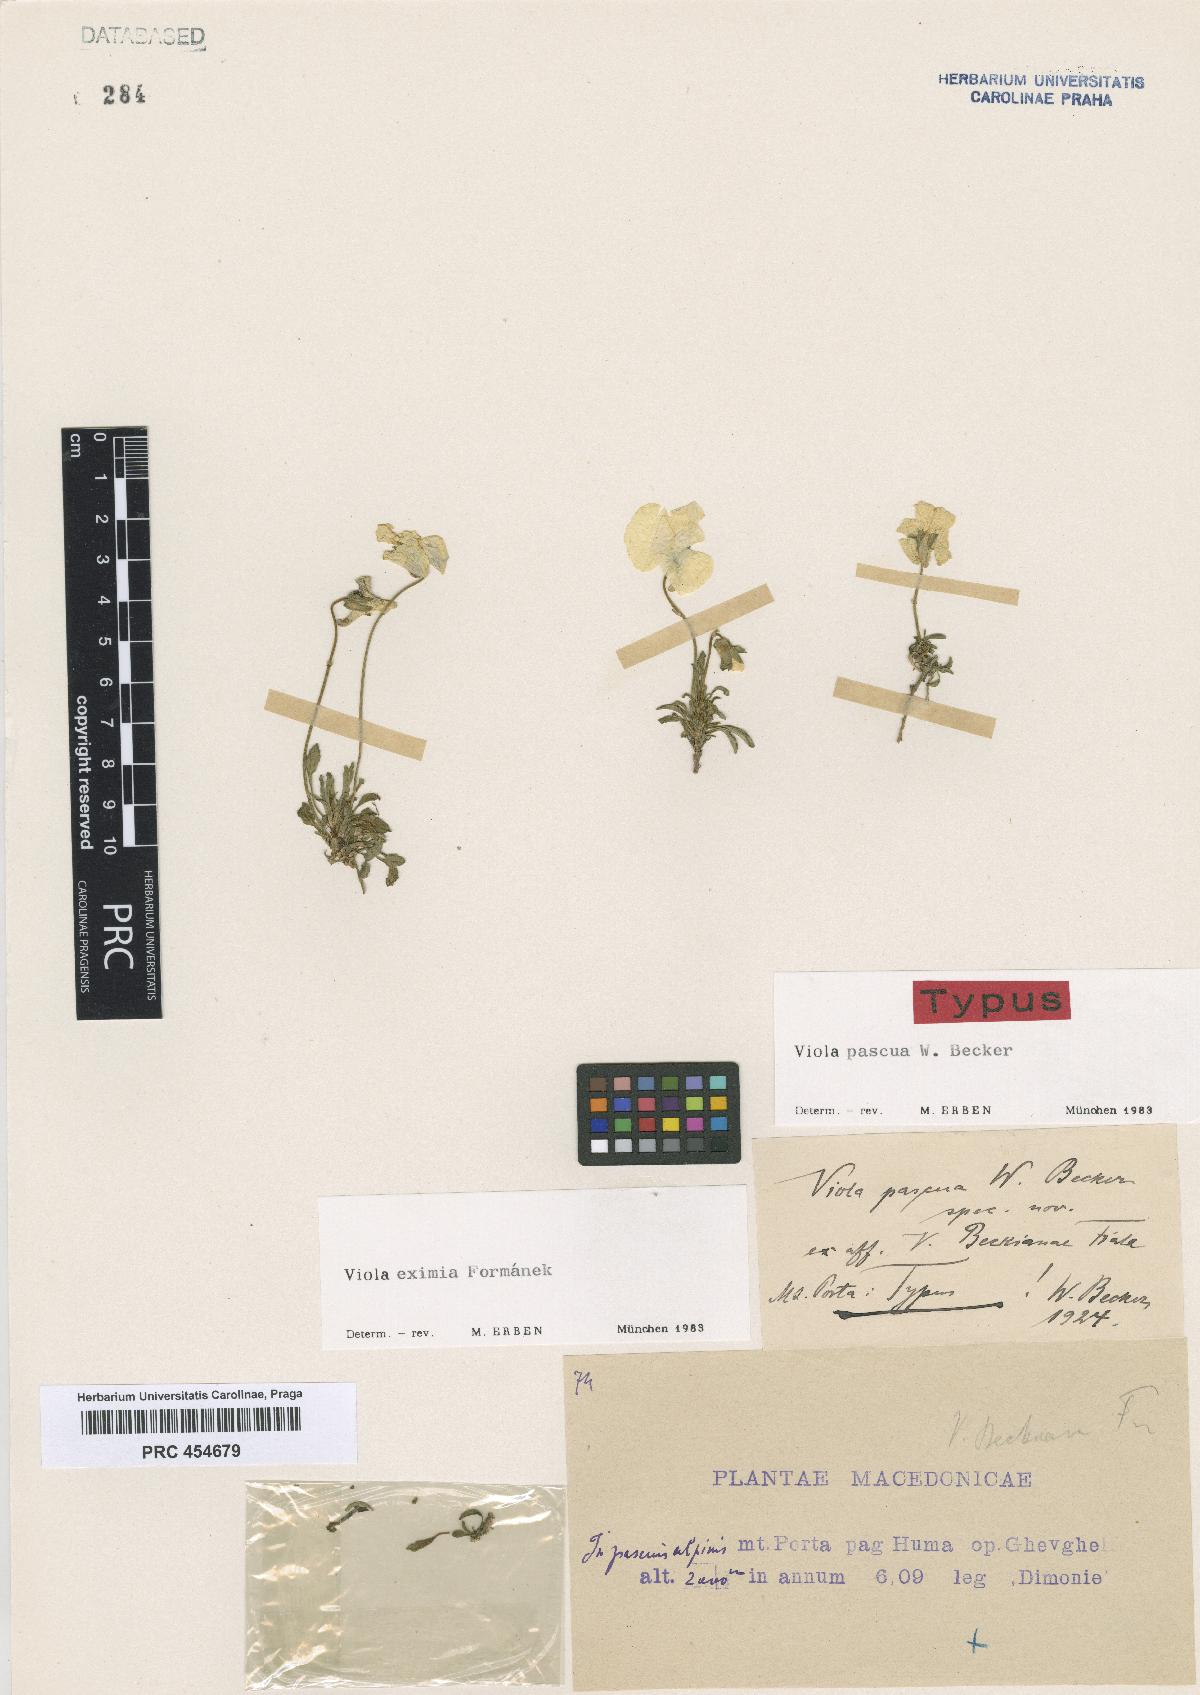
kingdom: Plantae
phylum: Tracheophyta
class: Magnoliopsida
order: Malpighiales
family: Violaceae
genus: Viola
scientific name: Viola eximia
